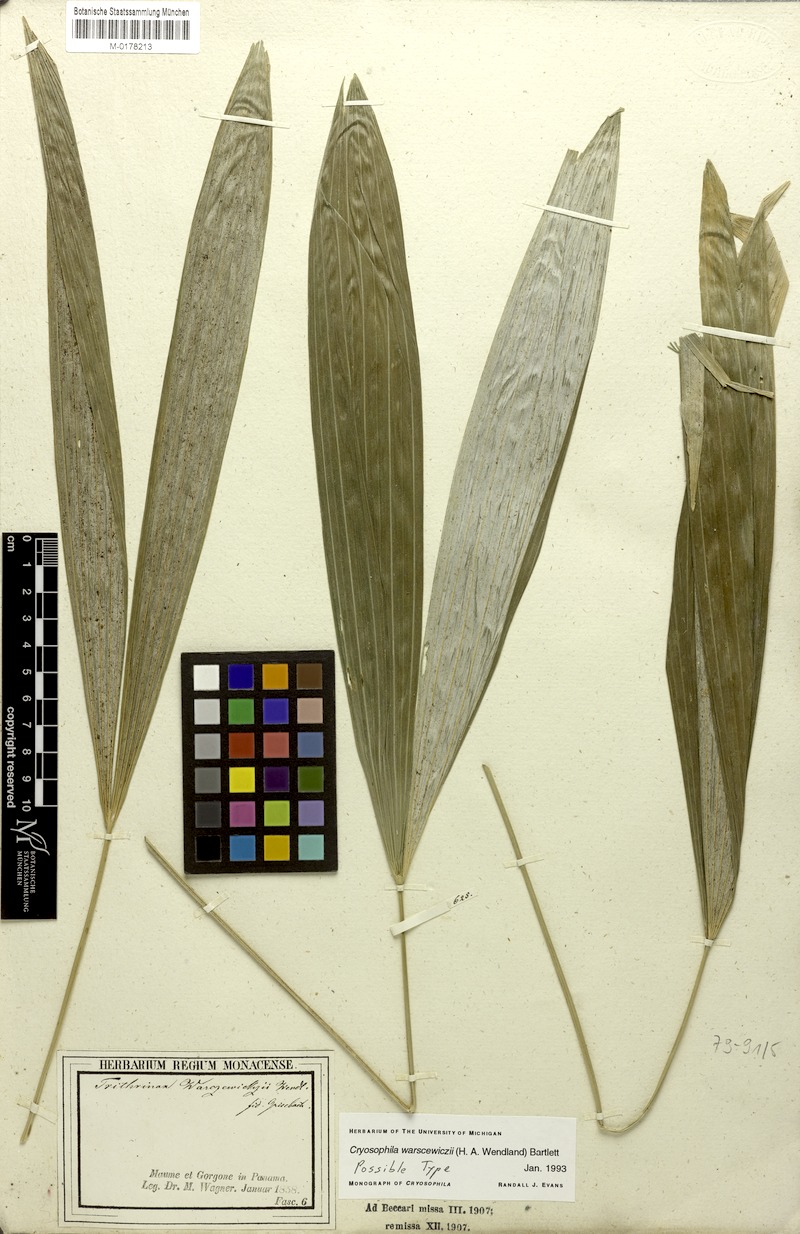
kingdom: Plantae
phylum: Tracheophyta
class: Liliopsida
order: Arecales
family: Arecaceae
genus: Cryosophila
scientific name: Cryosophila warscewiczii
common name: Root-spine palm
